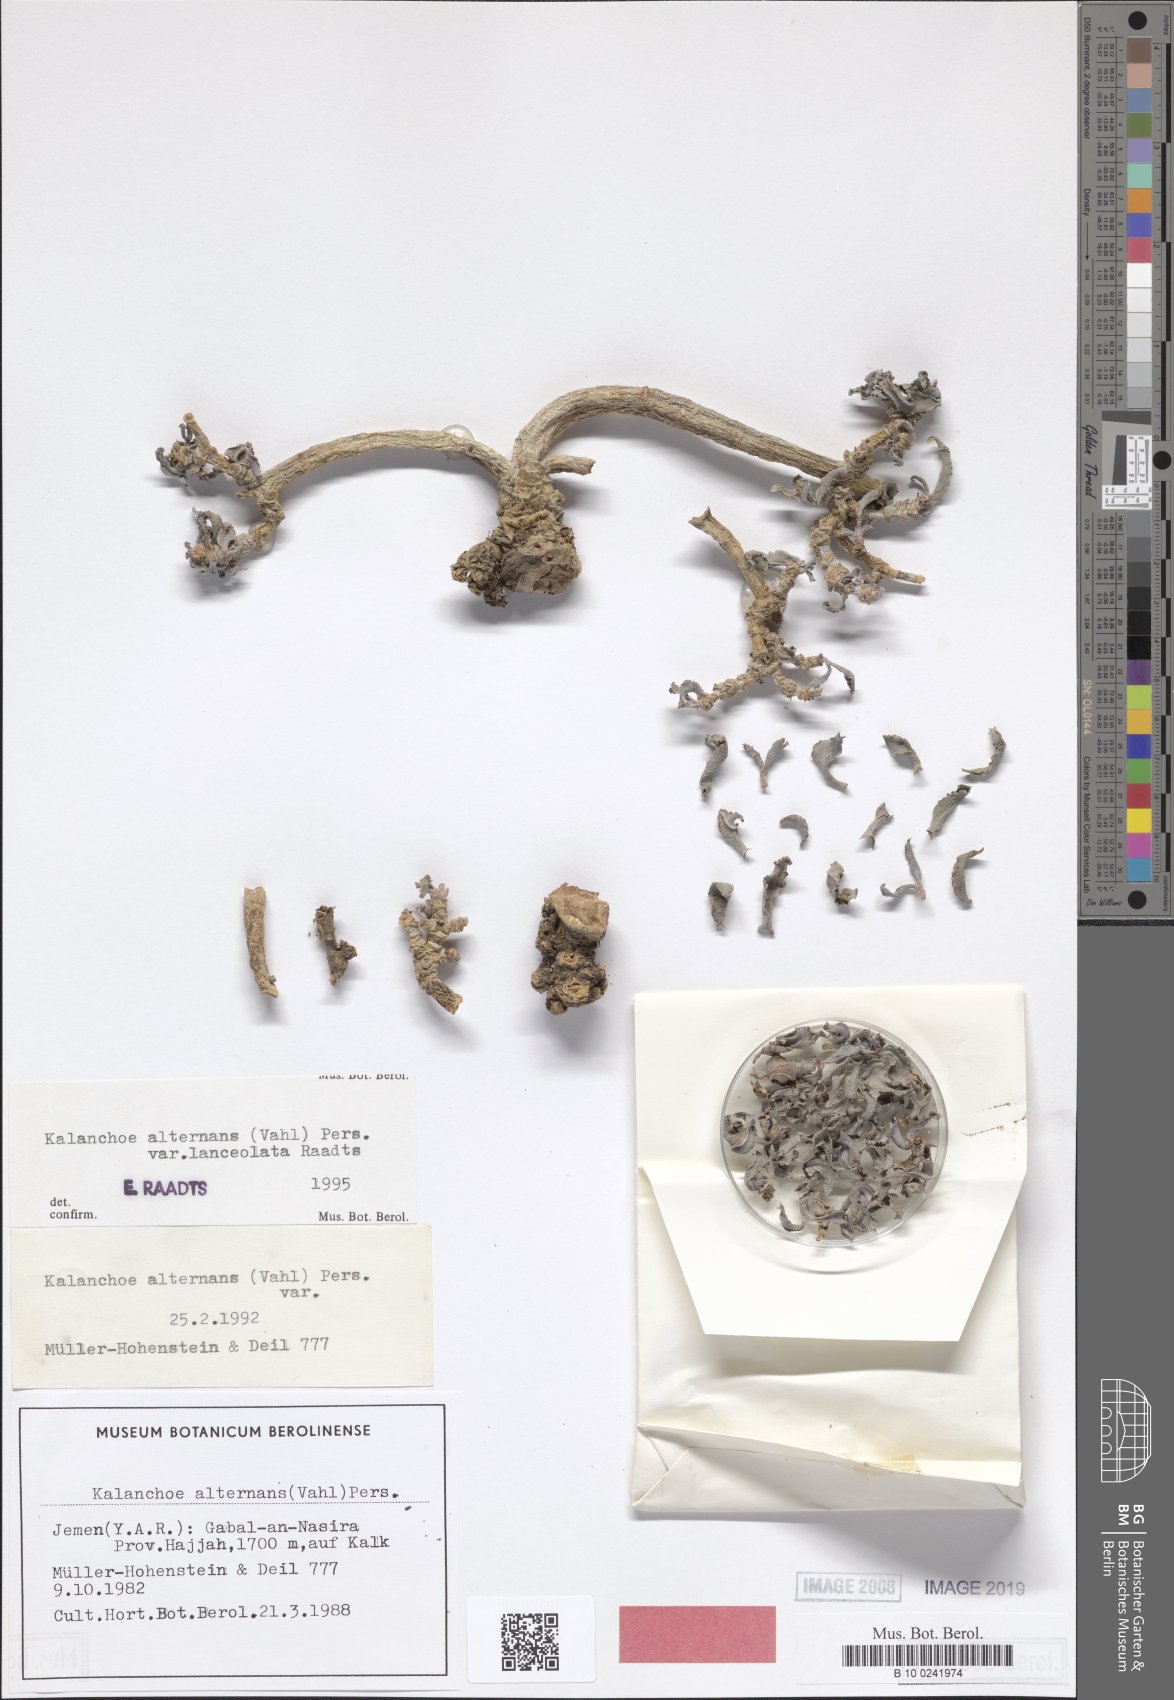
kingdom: Plantae
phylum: Tracheophyta
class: Magnoliopsida
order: Saxifragales
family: Crassulaceae
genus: Kalanchoe
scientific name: Kalanchoe alternans
